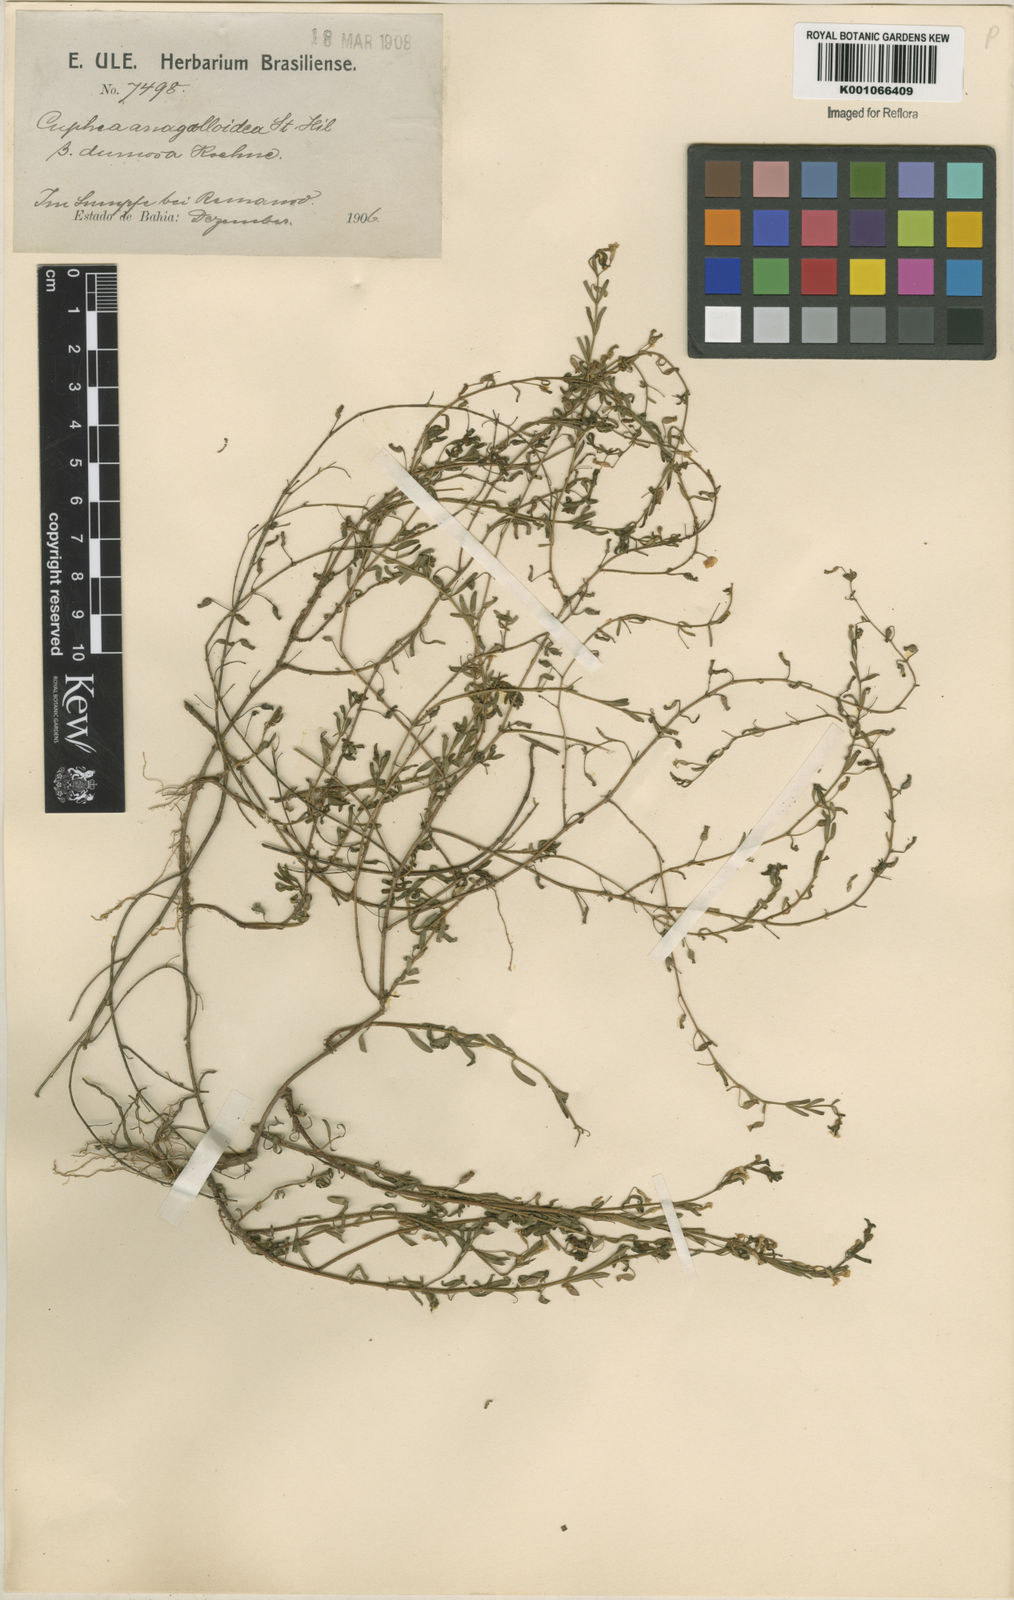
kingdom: Plantae
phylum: Tracheophyta
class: Magnoliopsida
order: Myrtales
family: Lythraceae
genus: Cuphea
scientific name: Cuphea anagalloidea
